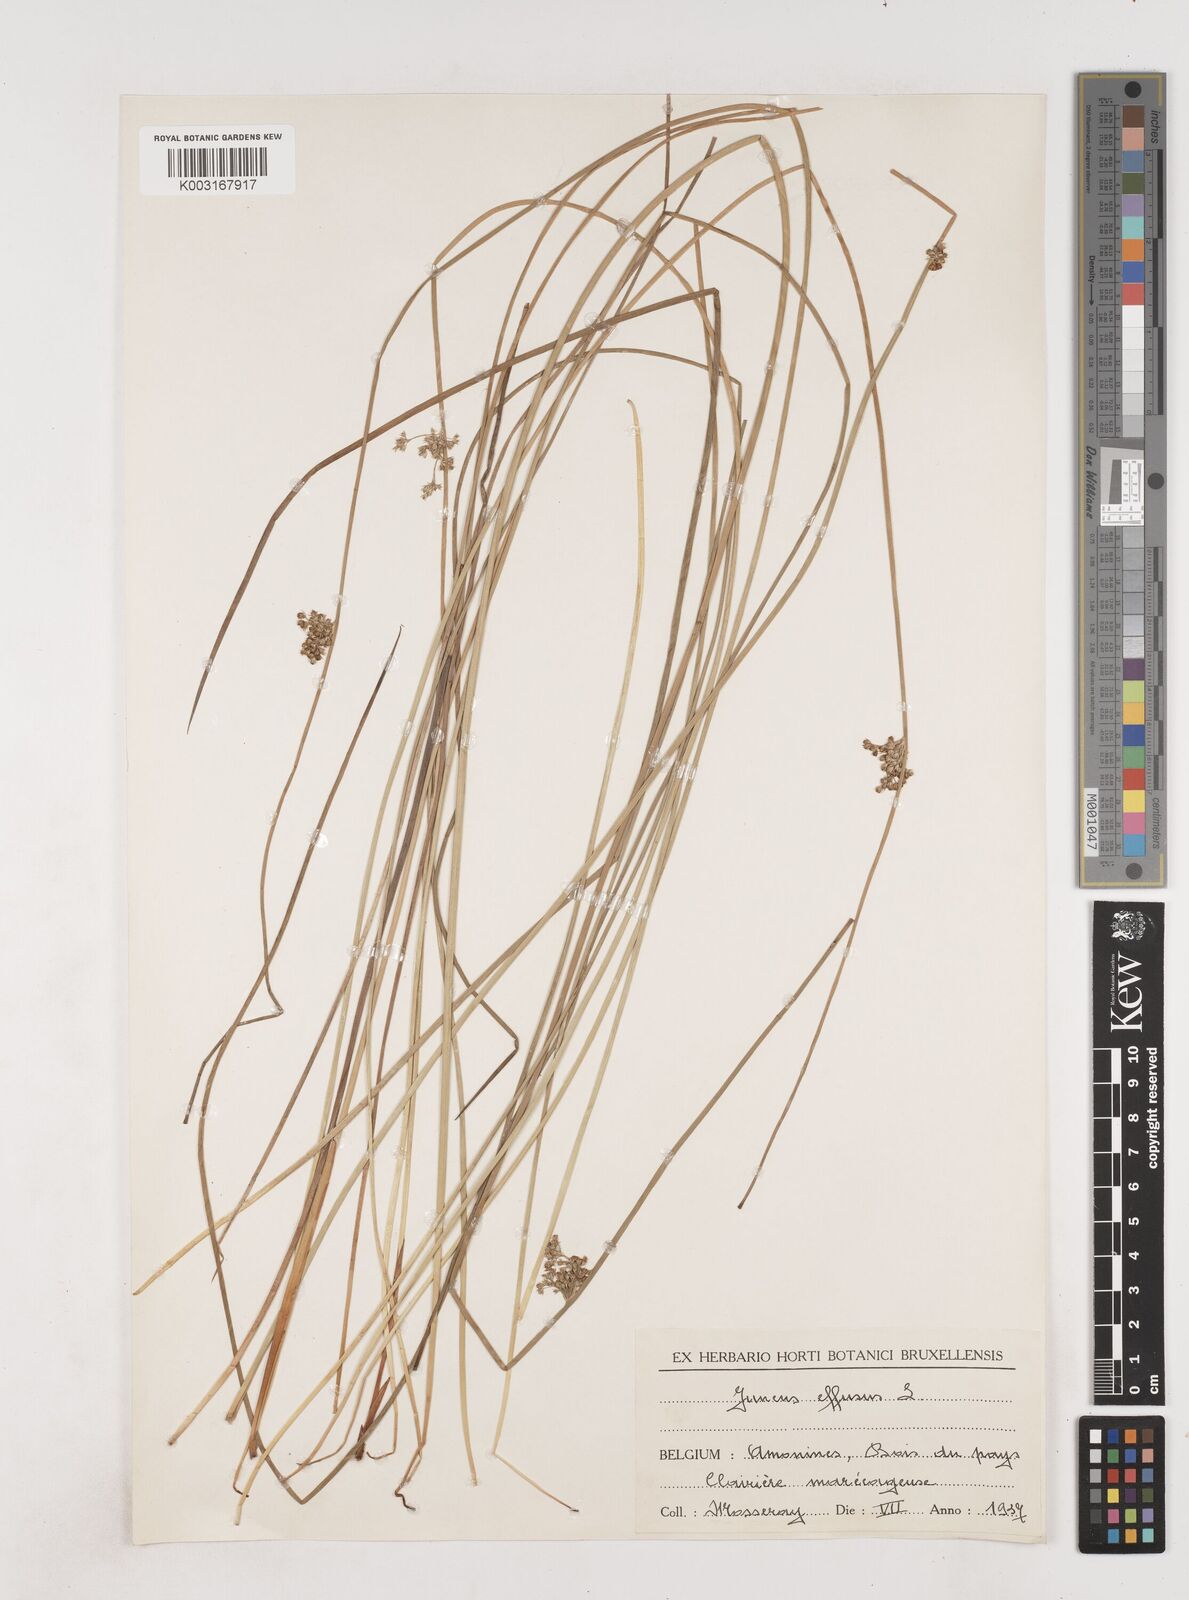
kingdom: Plantae
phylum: Tracheophyta
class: Liliopsida
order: Poales
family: Juncaceae
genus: Juncus
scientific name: Juncus effusus
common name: Soft rush
